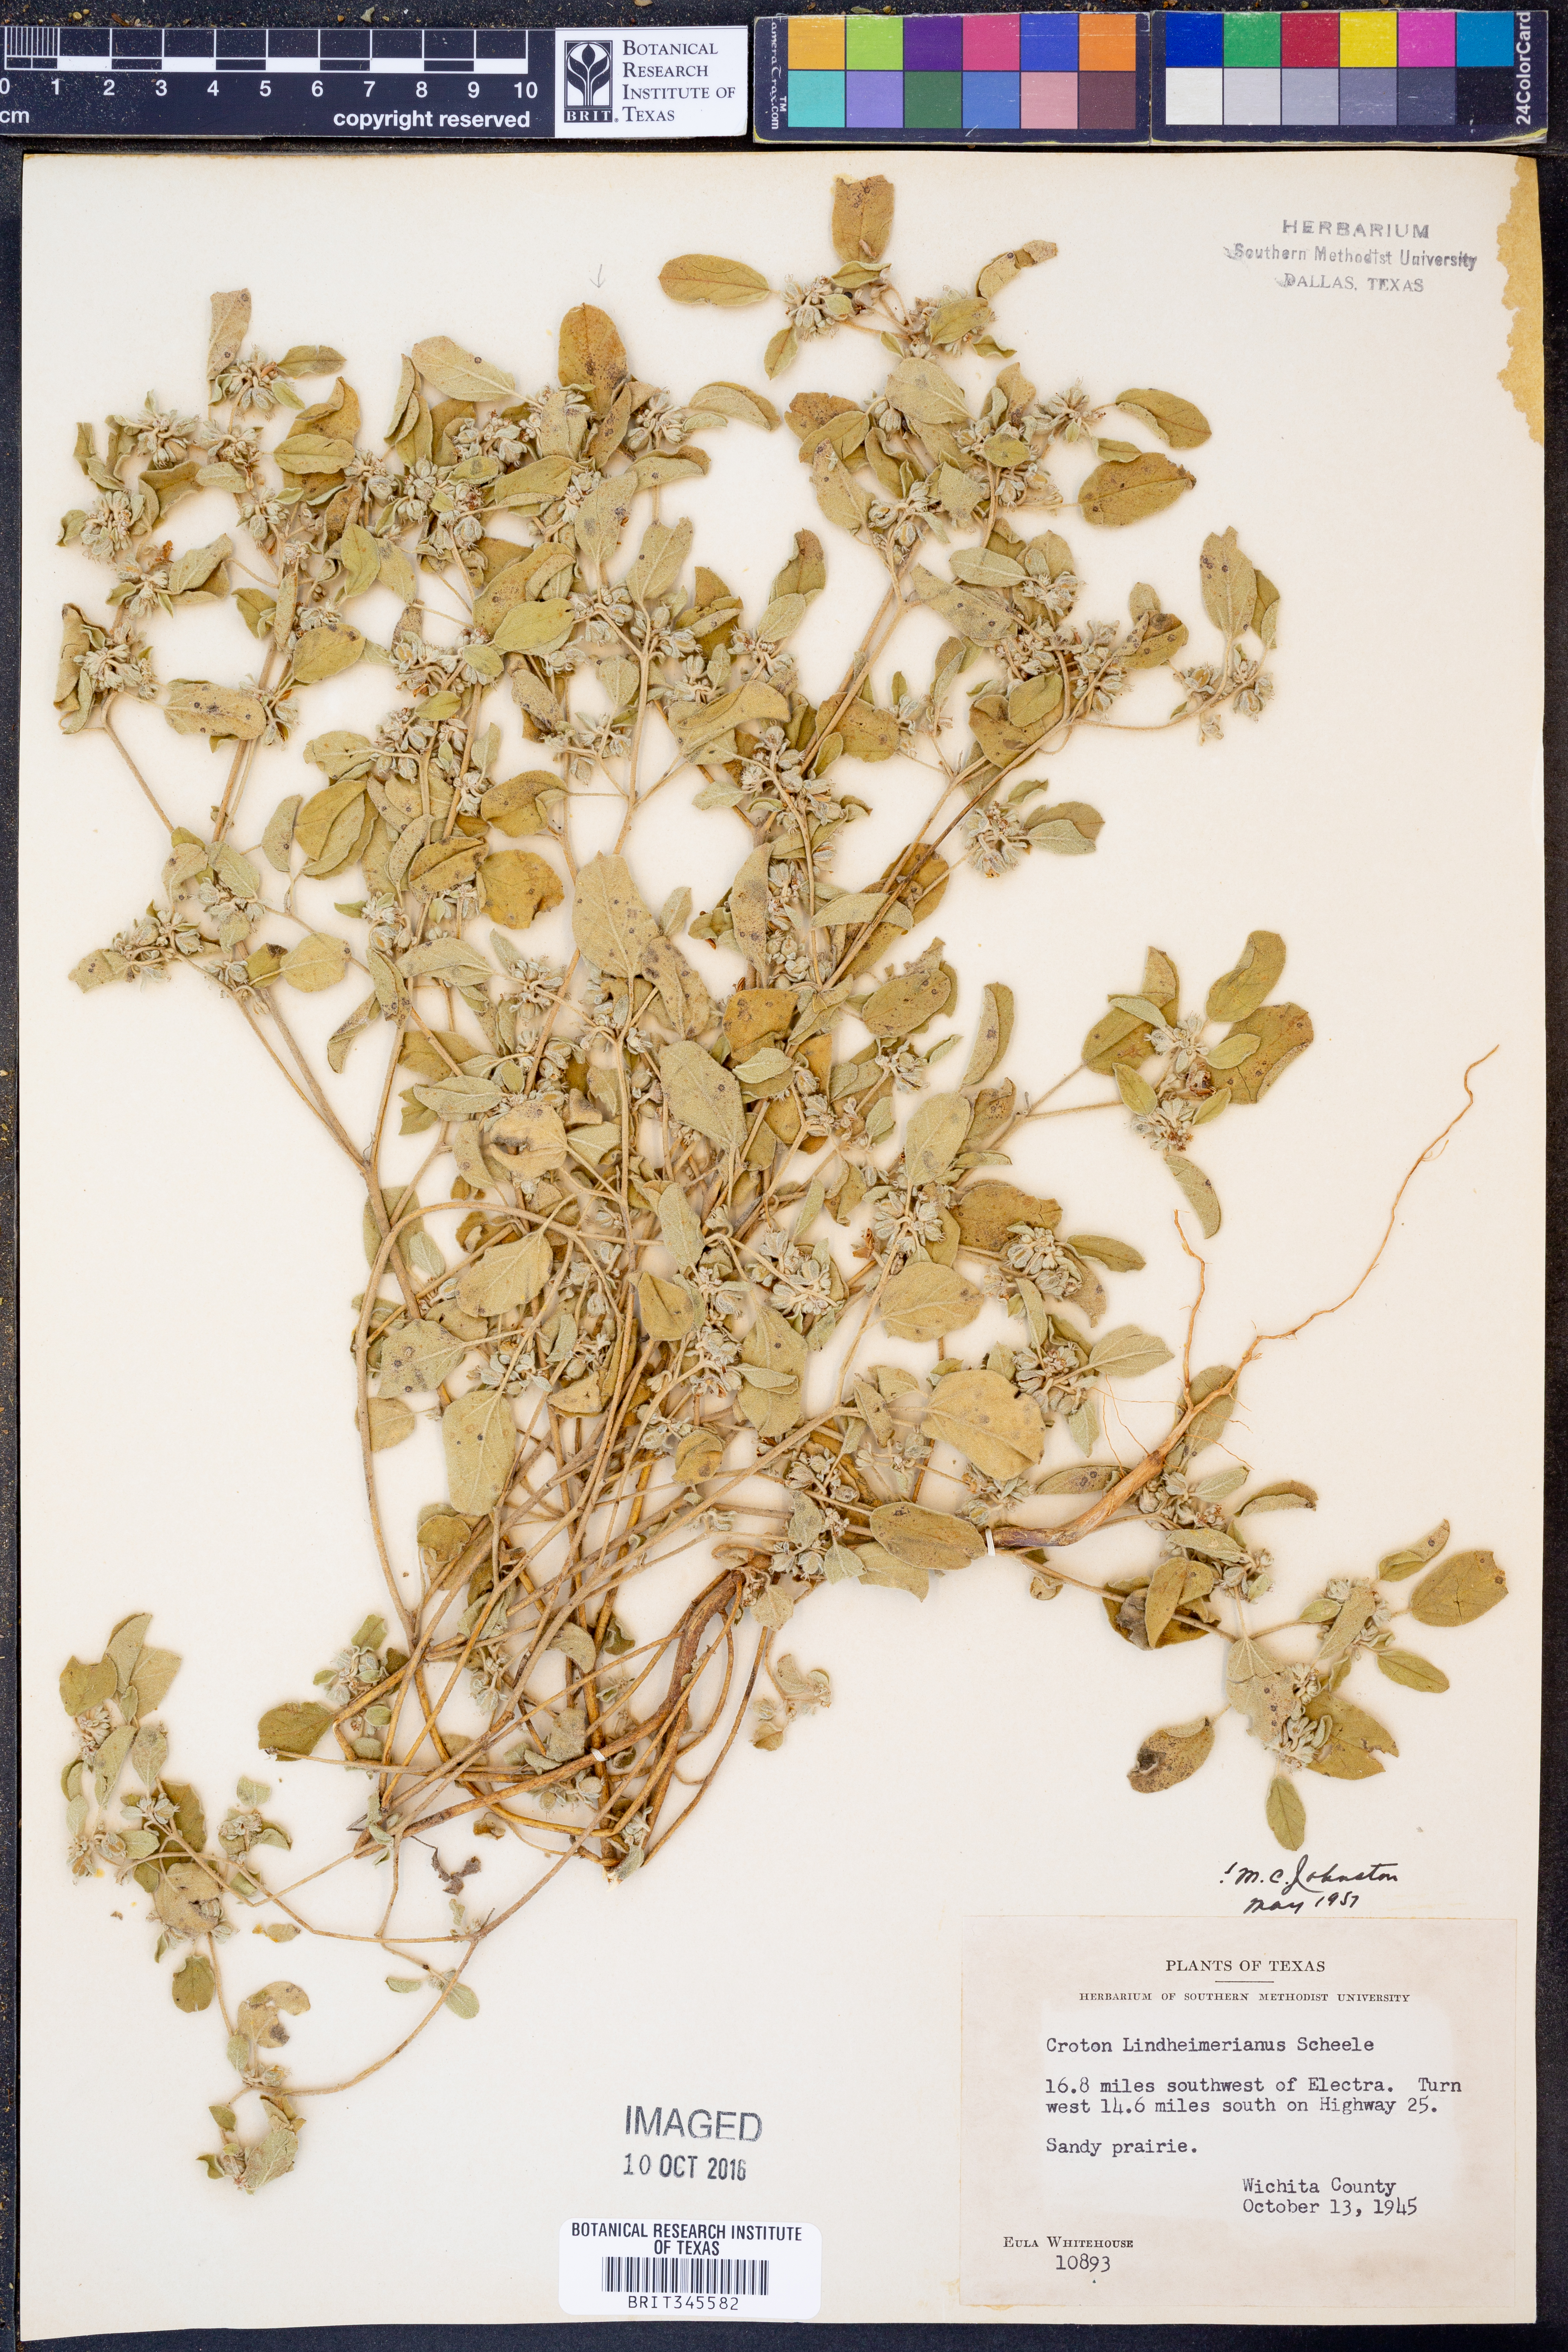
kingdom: Plantae
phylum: Tracheophyta
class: Magnoliopsida
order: Malpighiales
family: Euphorbiaceae
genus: Croton
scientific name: Croton lindheimerianus
